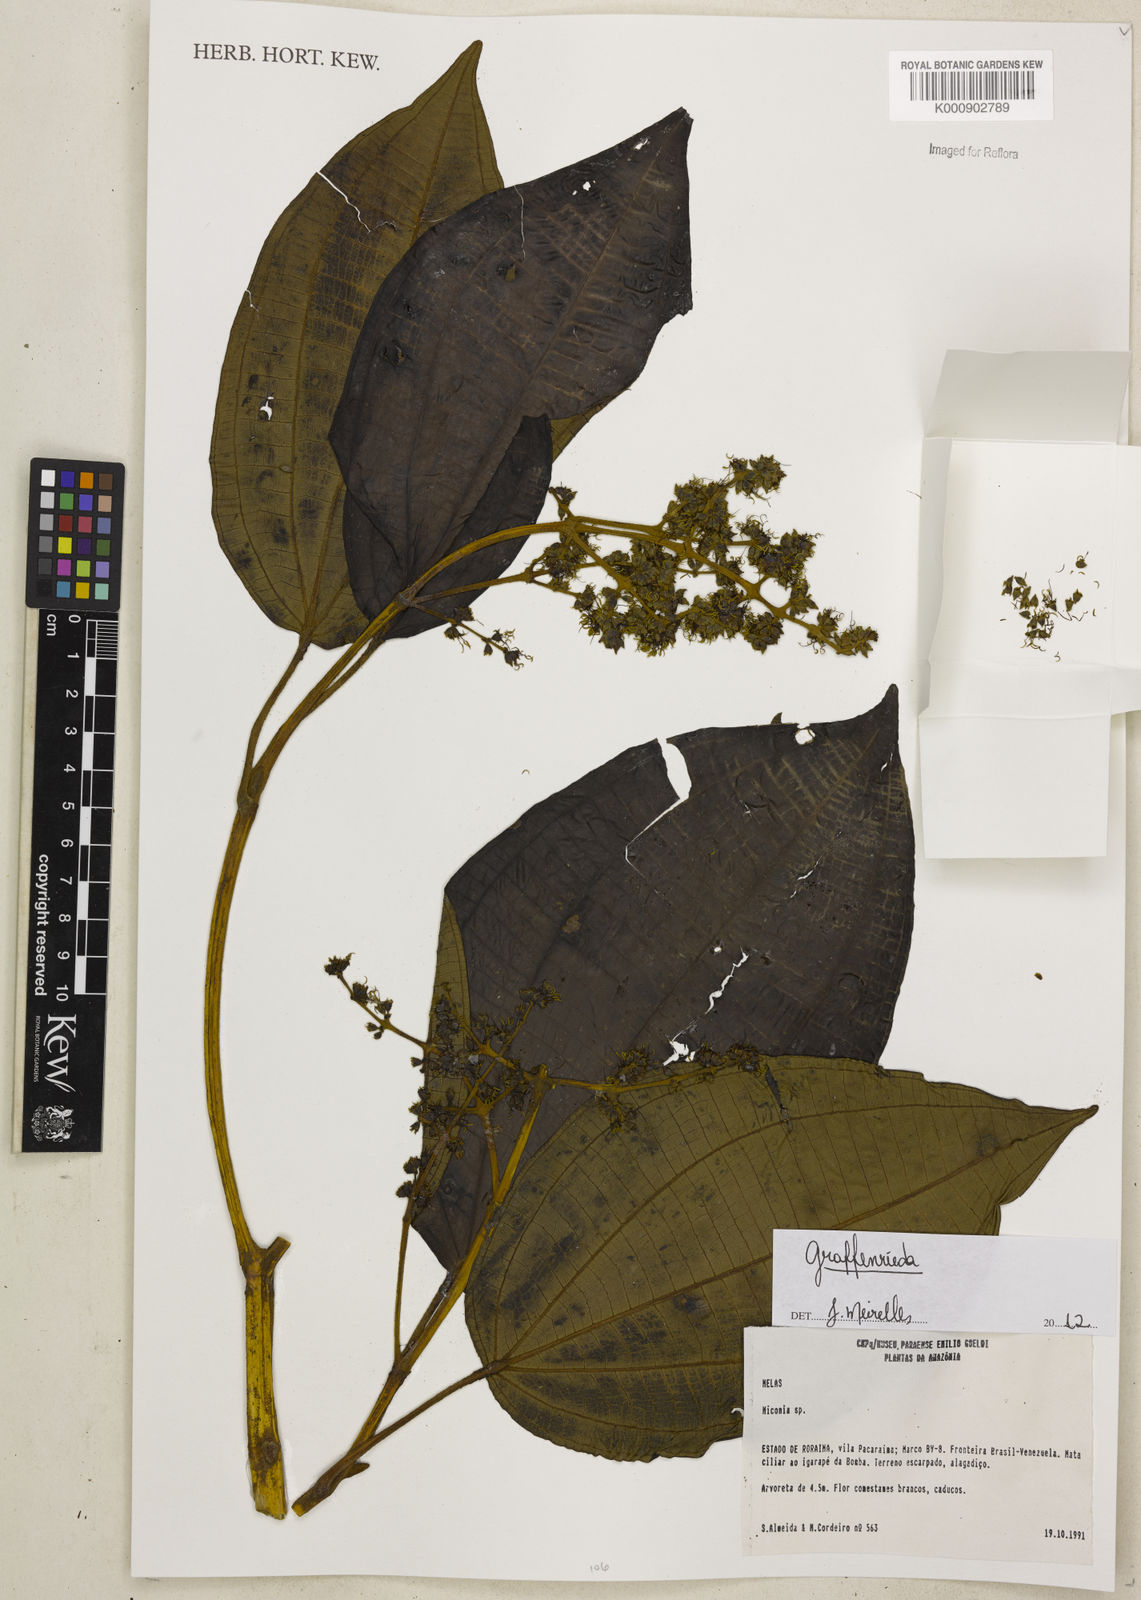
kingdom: Plantae
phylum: Tracheophyta
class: Magnoliopsida
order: Myrtales
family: Melastomataceae
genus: Graffenrieda
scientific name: Graffenrieda
